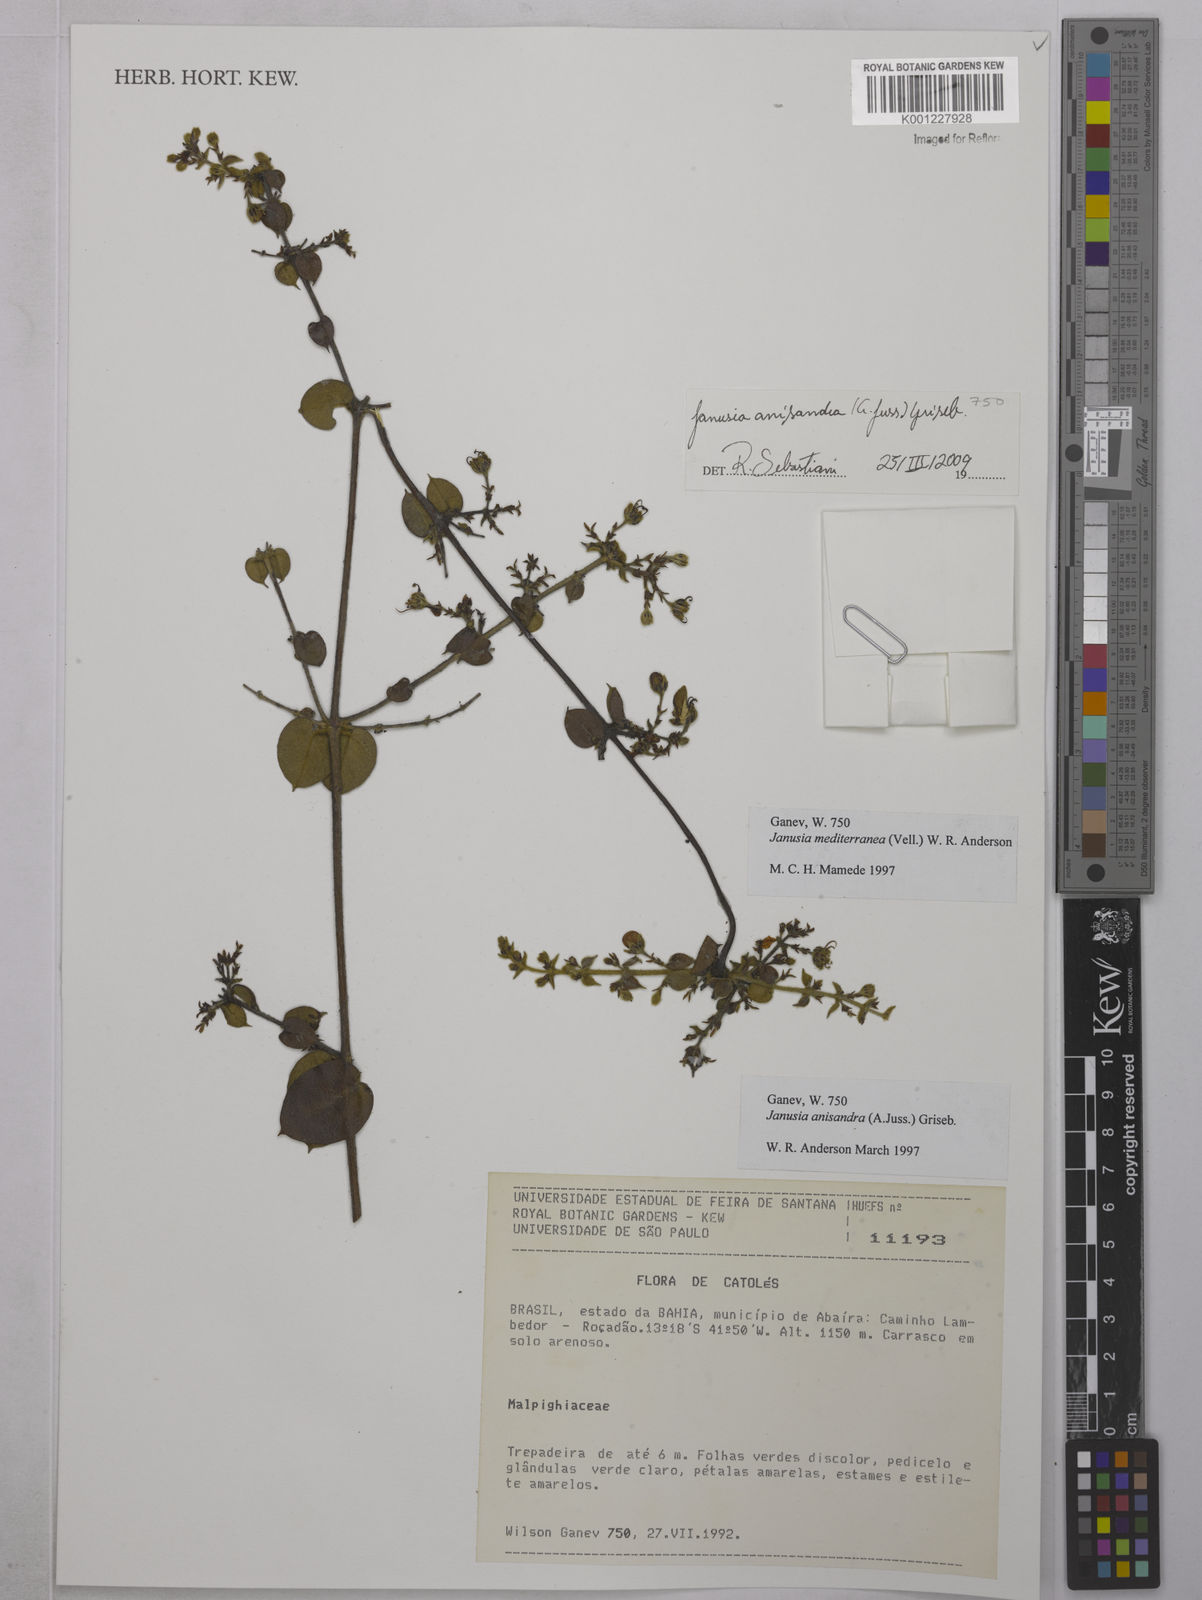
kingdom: Plantae
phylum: Tracheophyta
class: Magnoliopsida
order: Malpighiales
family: Malpighiaceae
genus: Janusia
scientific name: Janusia anisandra
